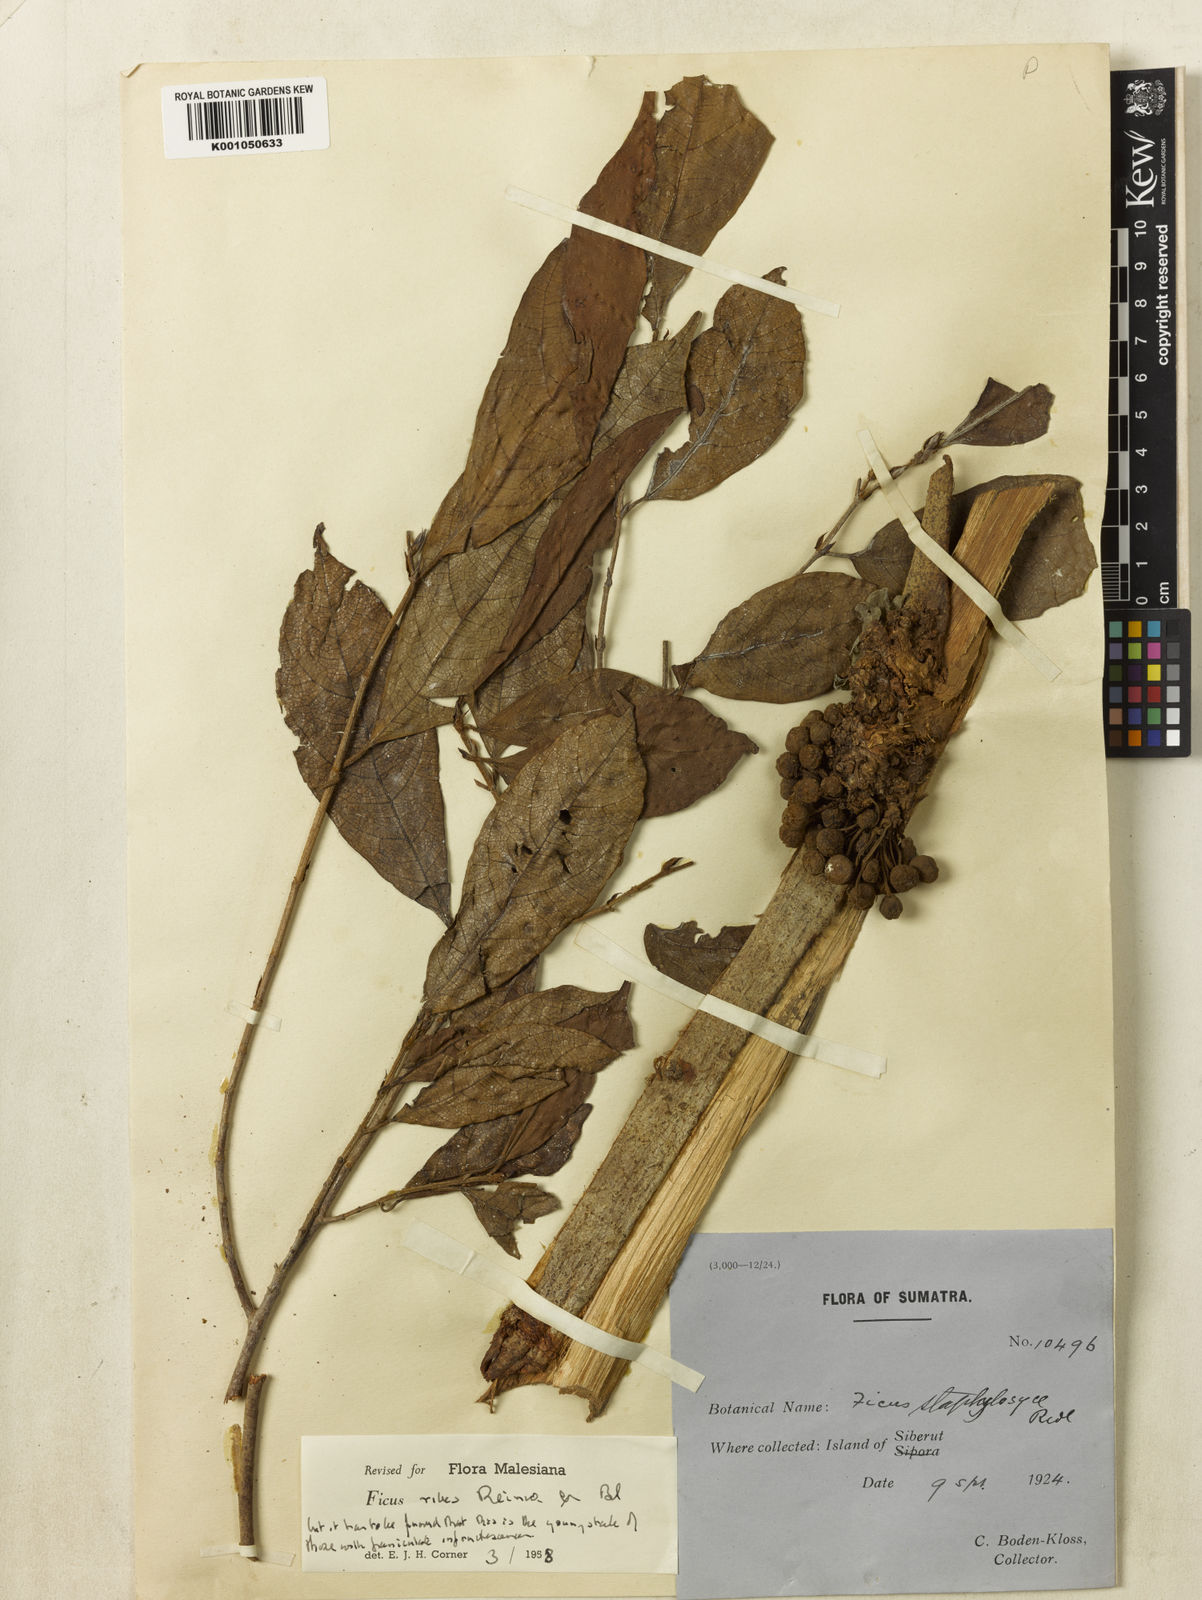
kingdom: Plantae
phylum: Tracheophyta
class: Magnoliopsida
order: Rosales
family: Moraceae
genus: Ficus
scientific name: Ficus ribes
